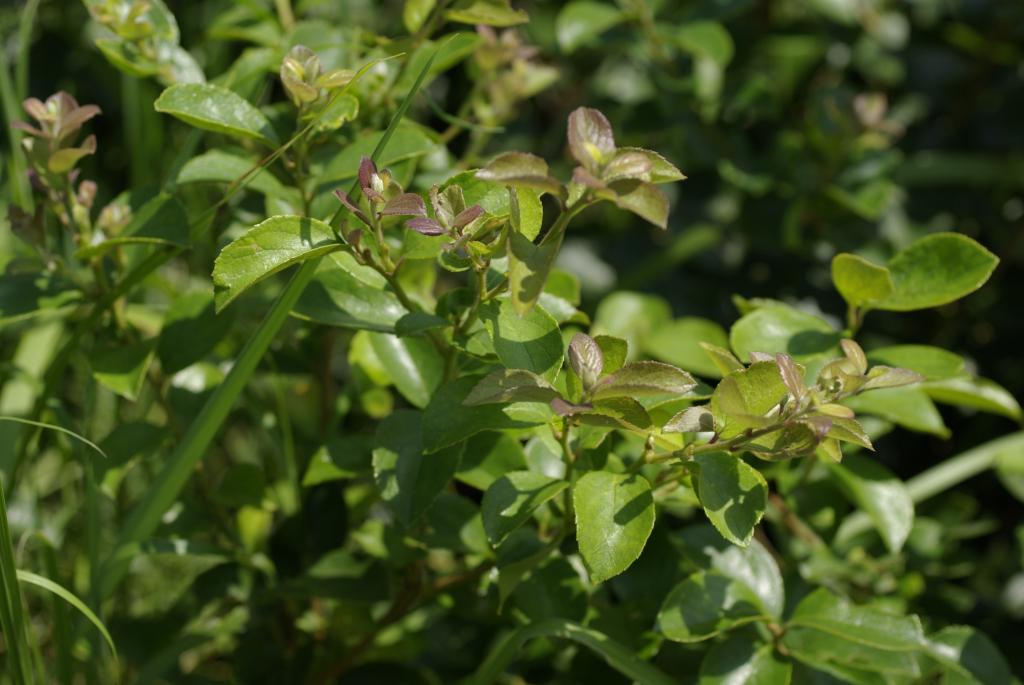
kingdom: Plantae
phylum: Tracheophyta
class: Magnoliopsida
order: Ericales
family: Symplocaceae
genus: Symplocos
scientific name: Symplocos paniculata
